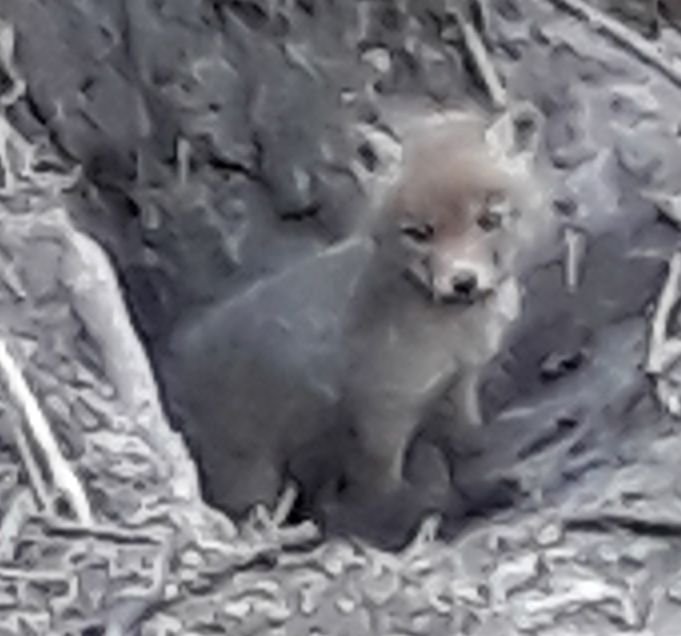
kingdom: Animalia
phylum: Chordata
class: Mammalia
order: Carnivora
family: Canidae
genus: Vulpes
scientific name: Vulpes vulpes
